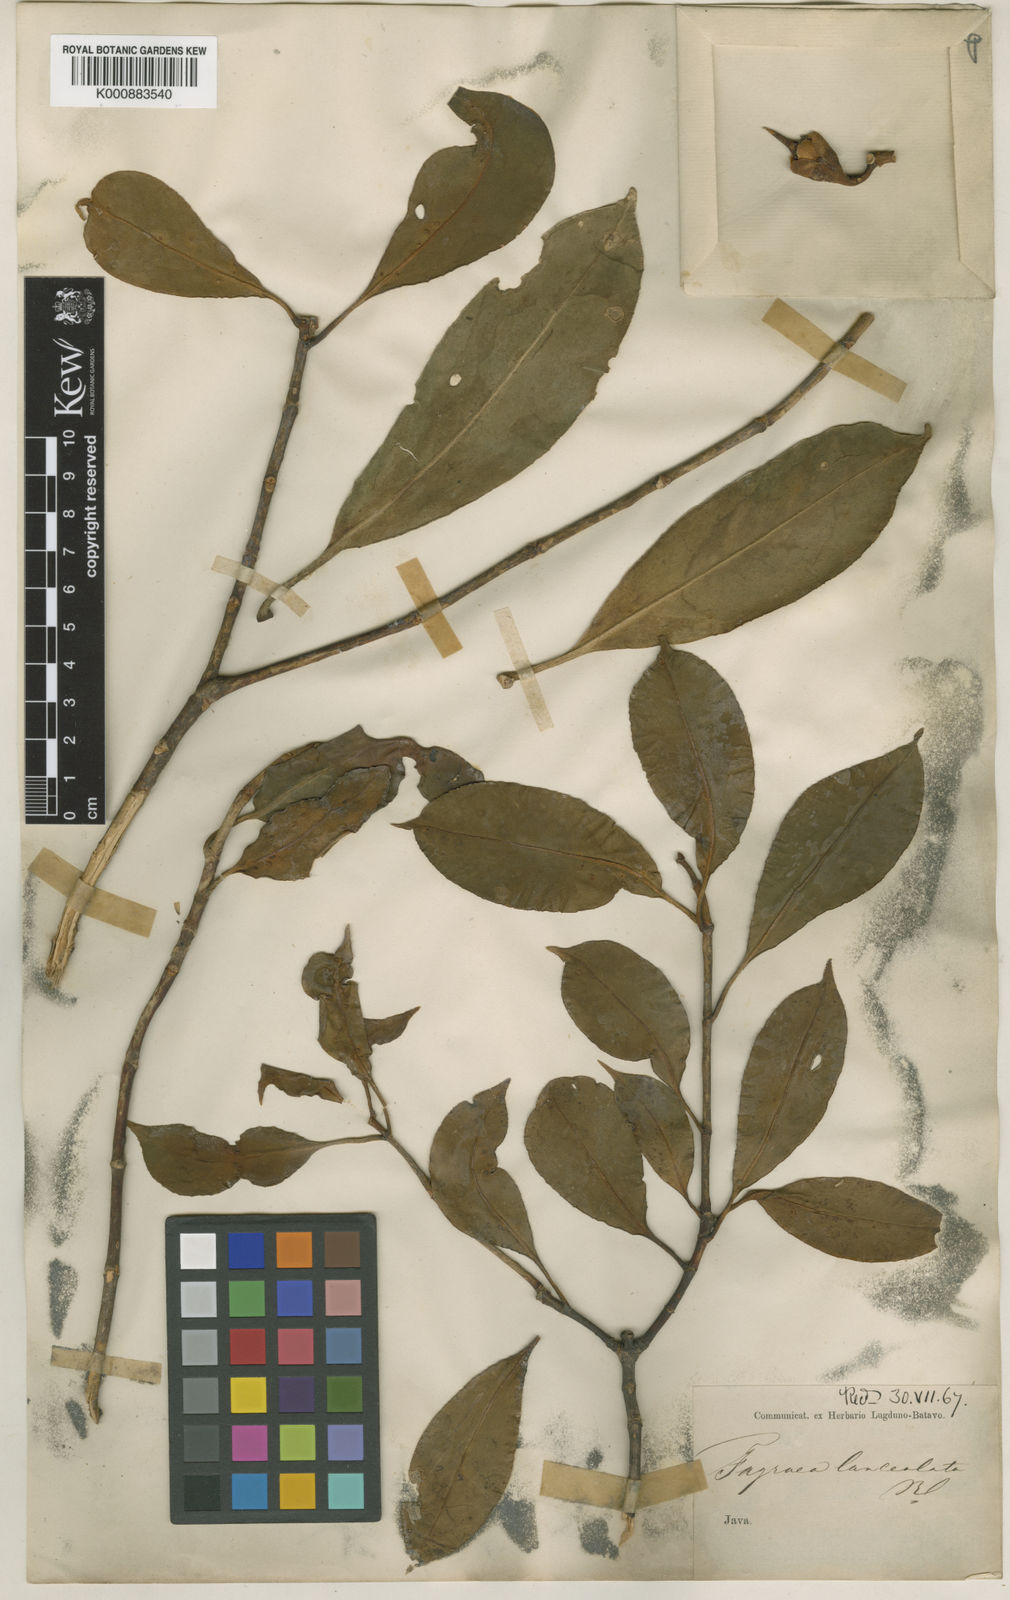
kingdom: Plantae
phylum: Tracheophyta
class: Magnoliopsida
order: Gentianales
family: Gentianaceae
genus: Fagraea
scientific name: Fagraea ceilanica
